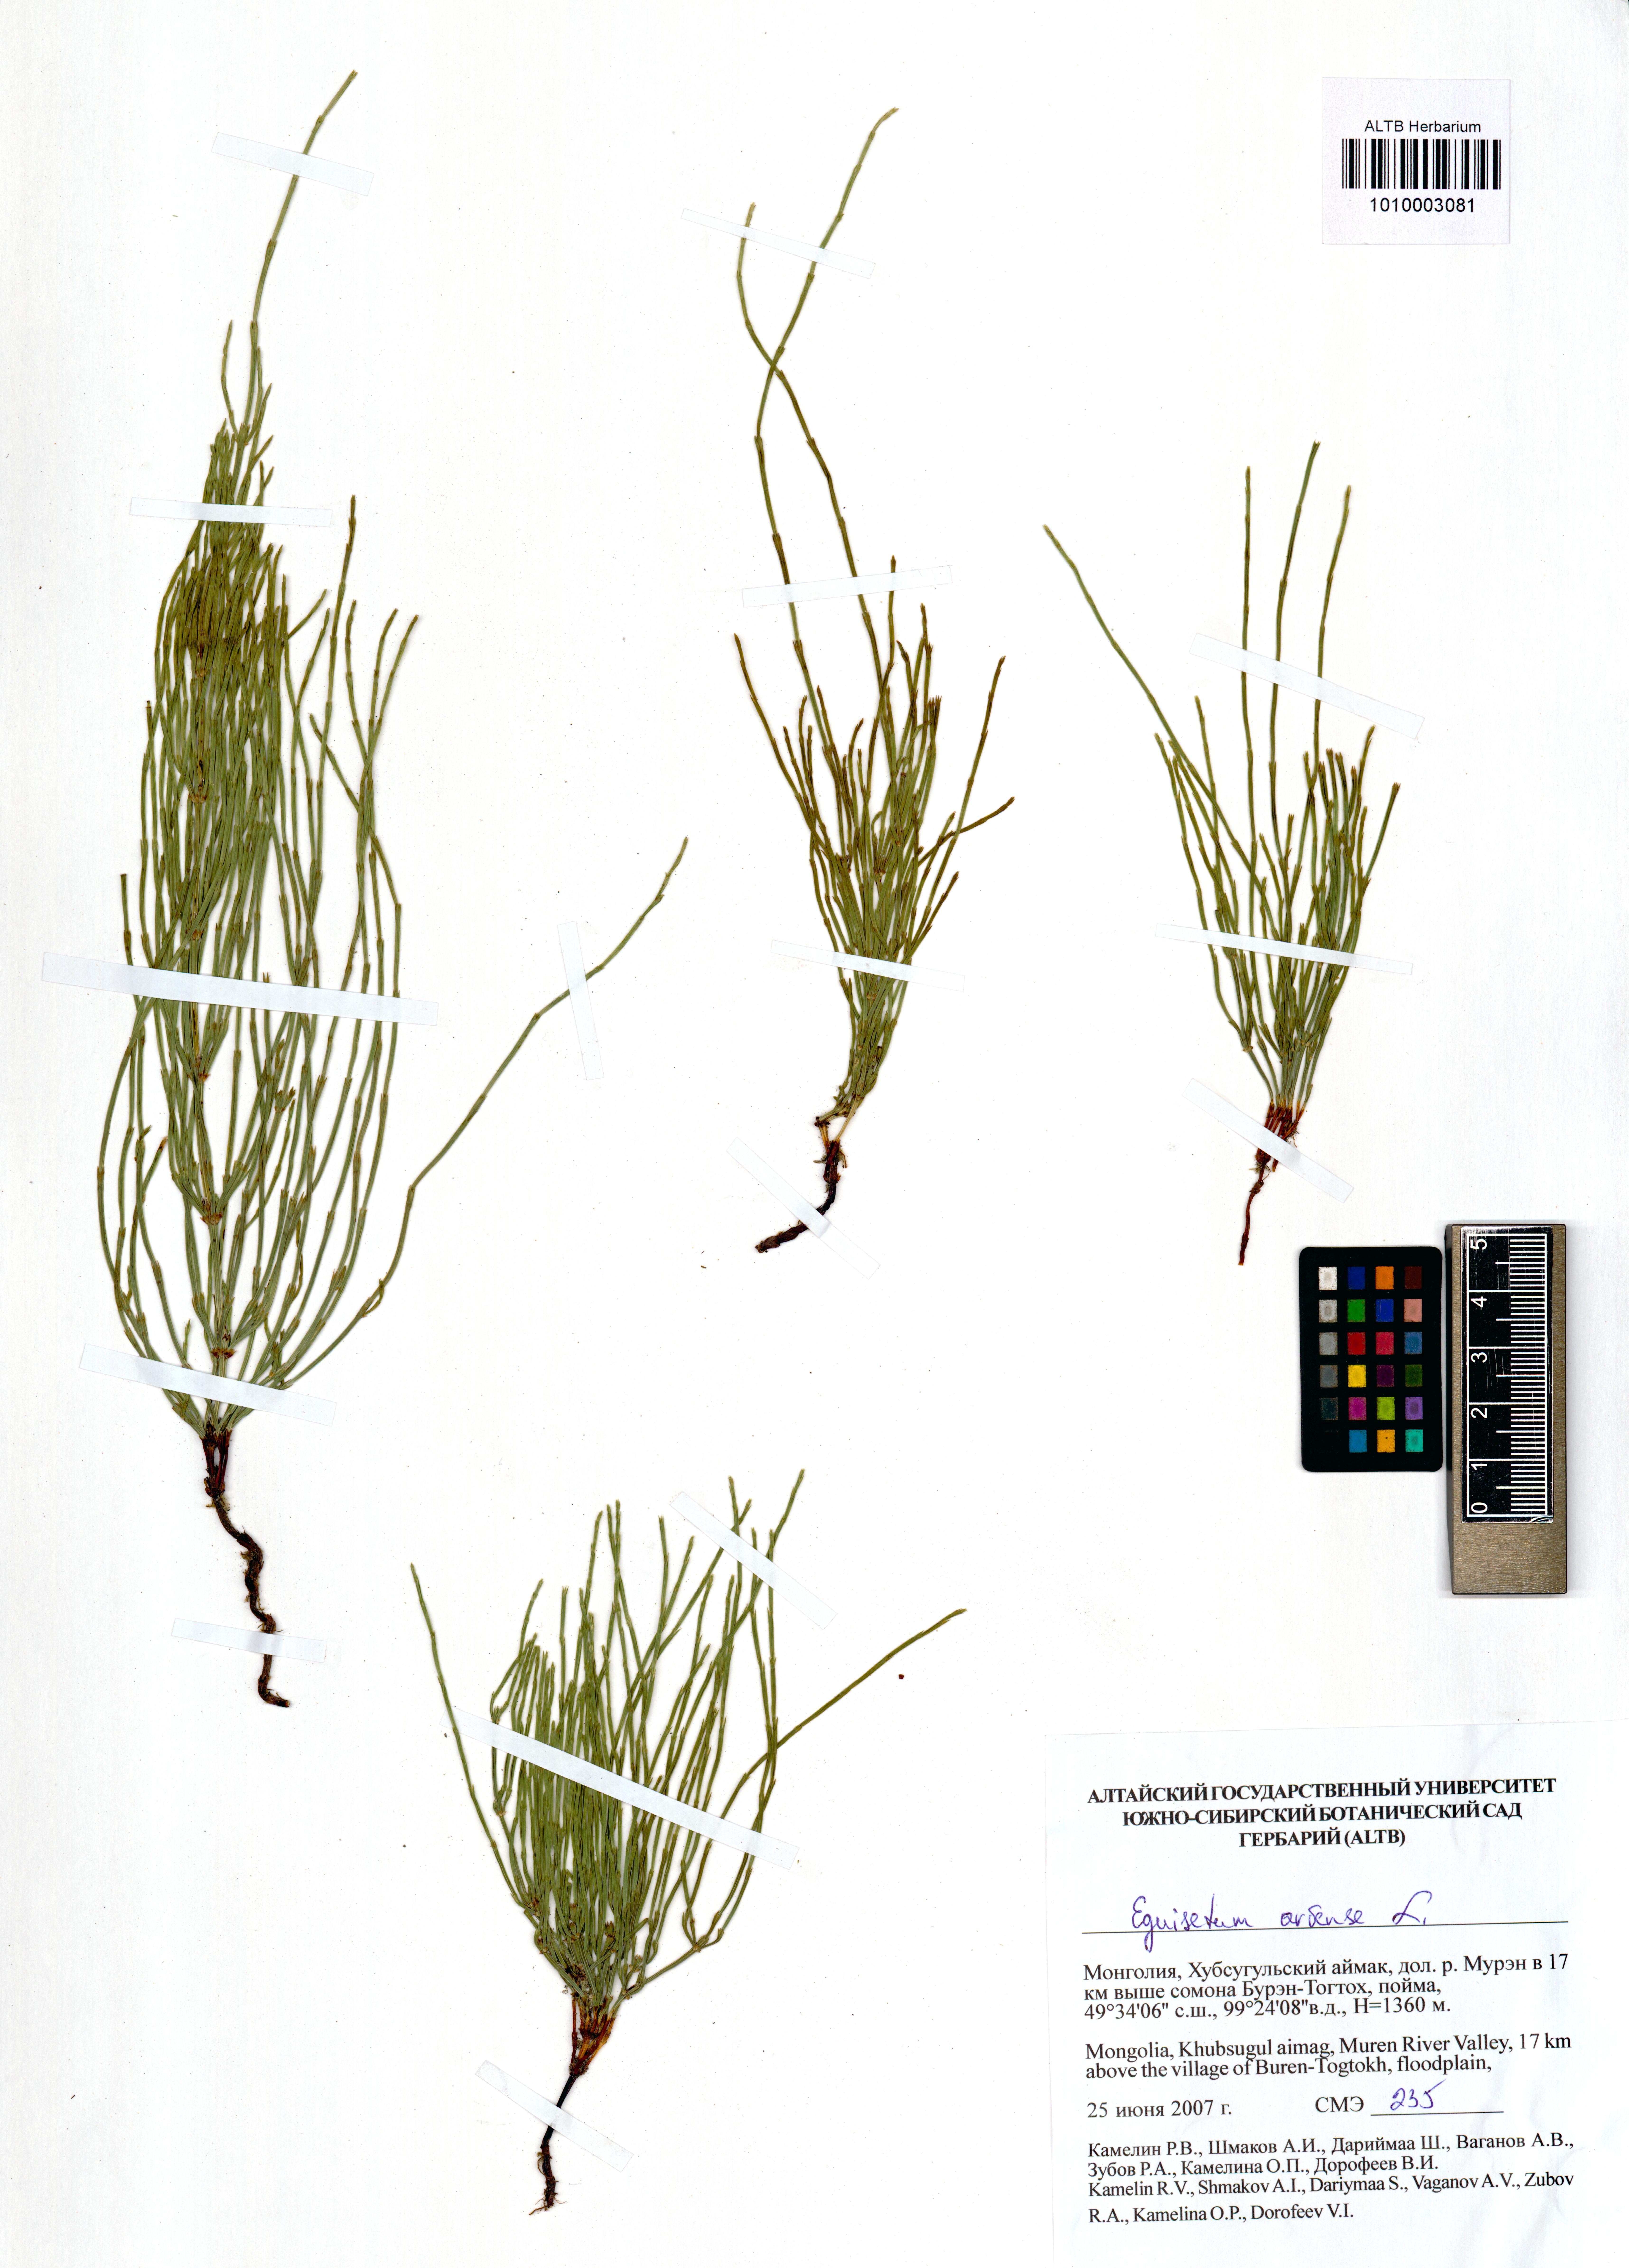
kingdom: Plantae
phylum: Tracheophyta
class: Polypodiopsida
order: Equisetales
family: Equisetaceae
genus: Equisetum
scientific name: Equisetum arvense
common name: Field horsetail
